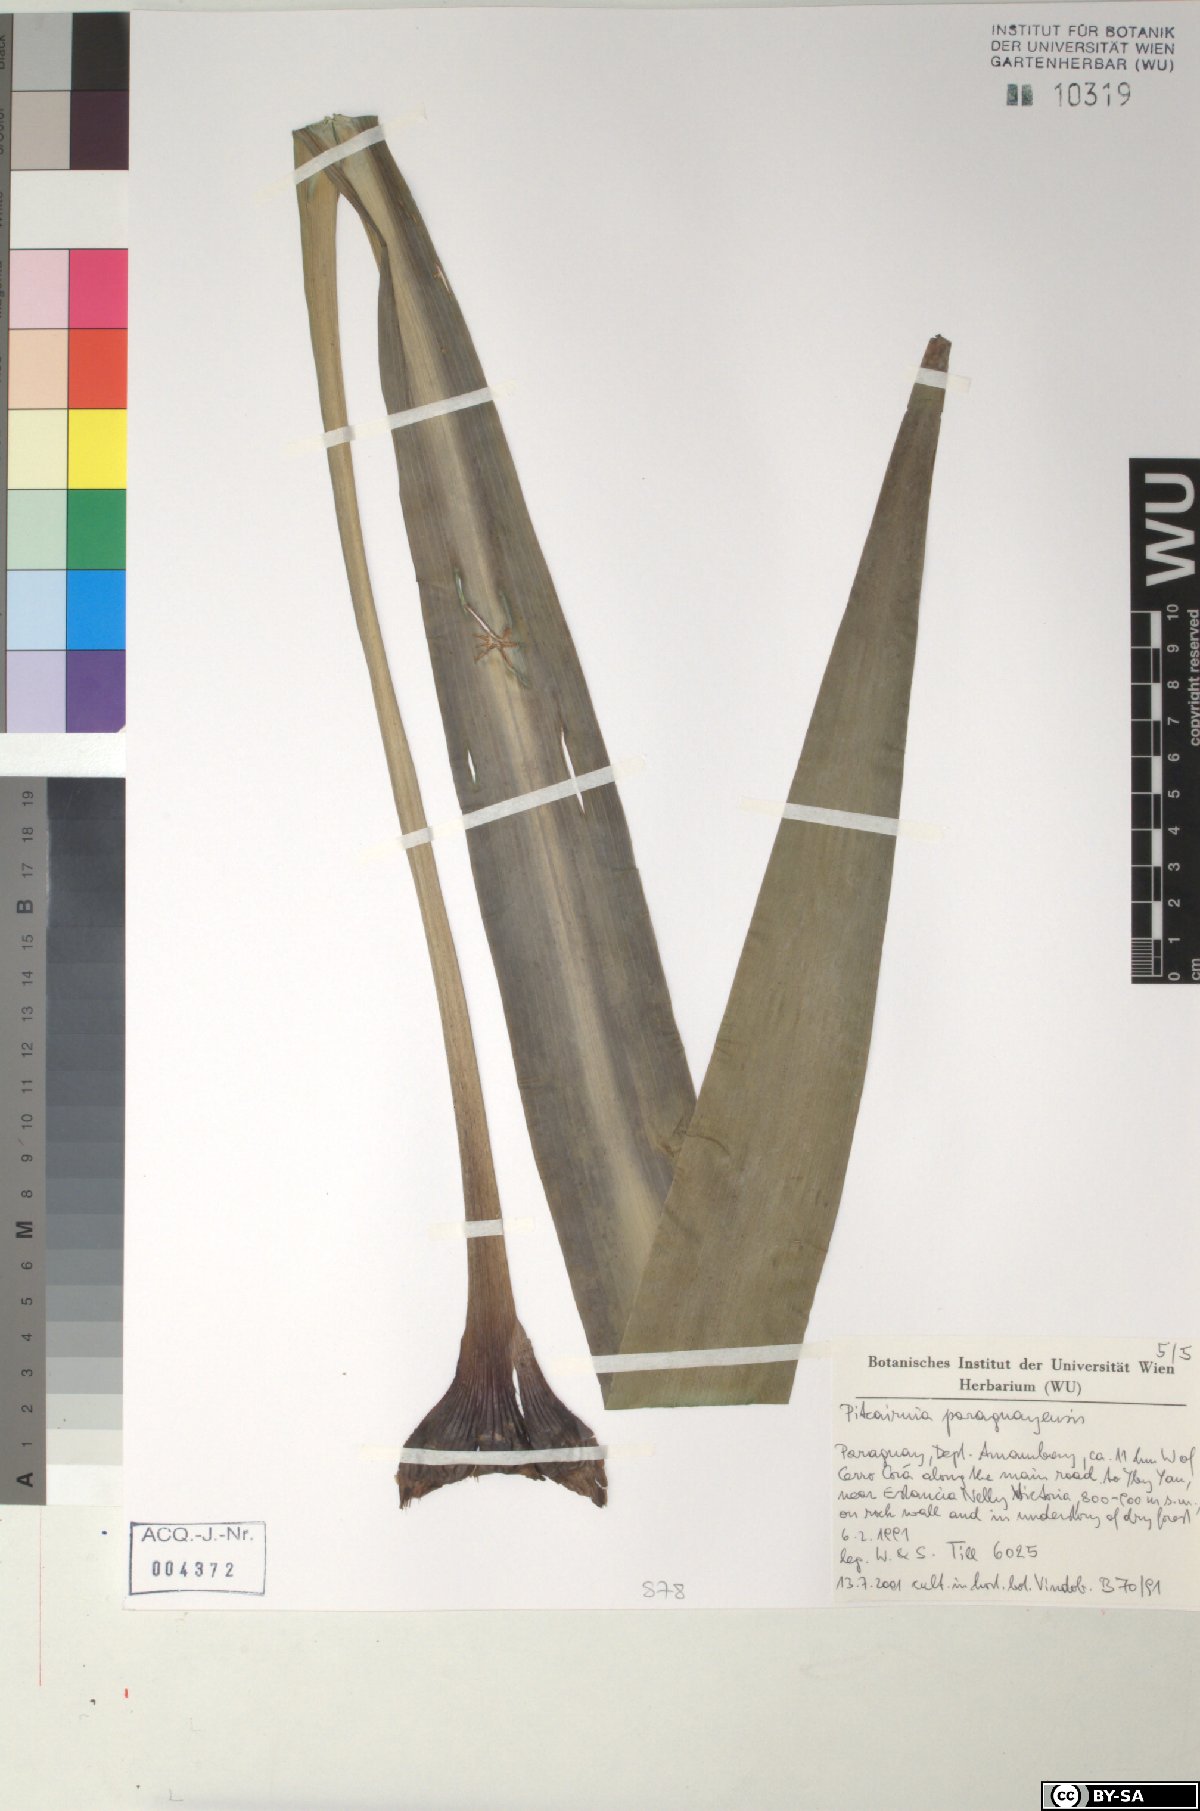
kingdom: Plantae
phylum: Tracheophyta
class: Liliopsida
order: Poales
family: Bromeliaceae
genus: Pitcairnia
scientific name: Pitcairnia paraguayensis
